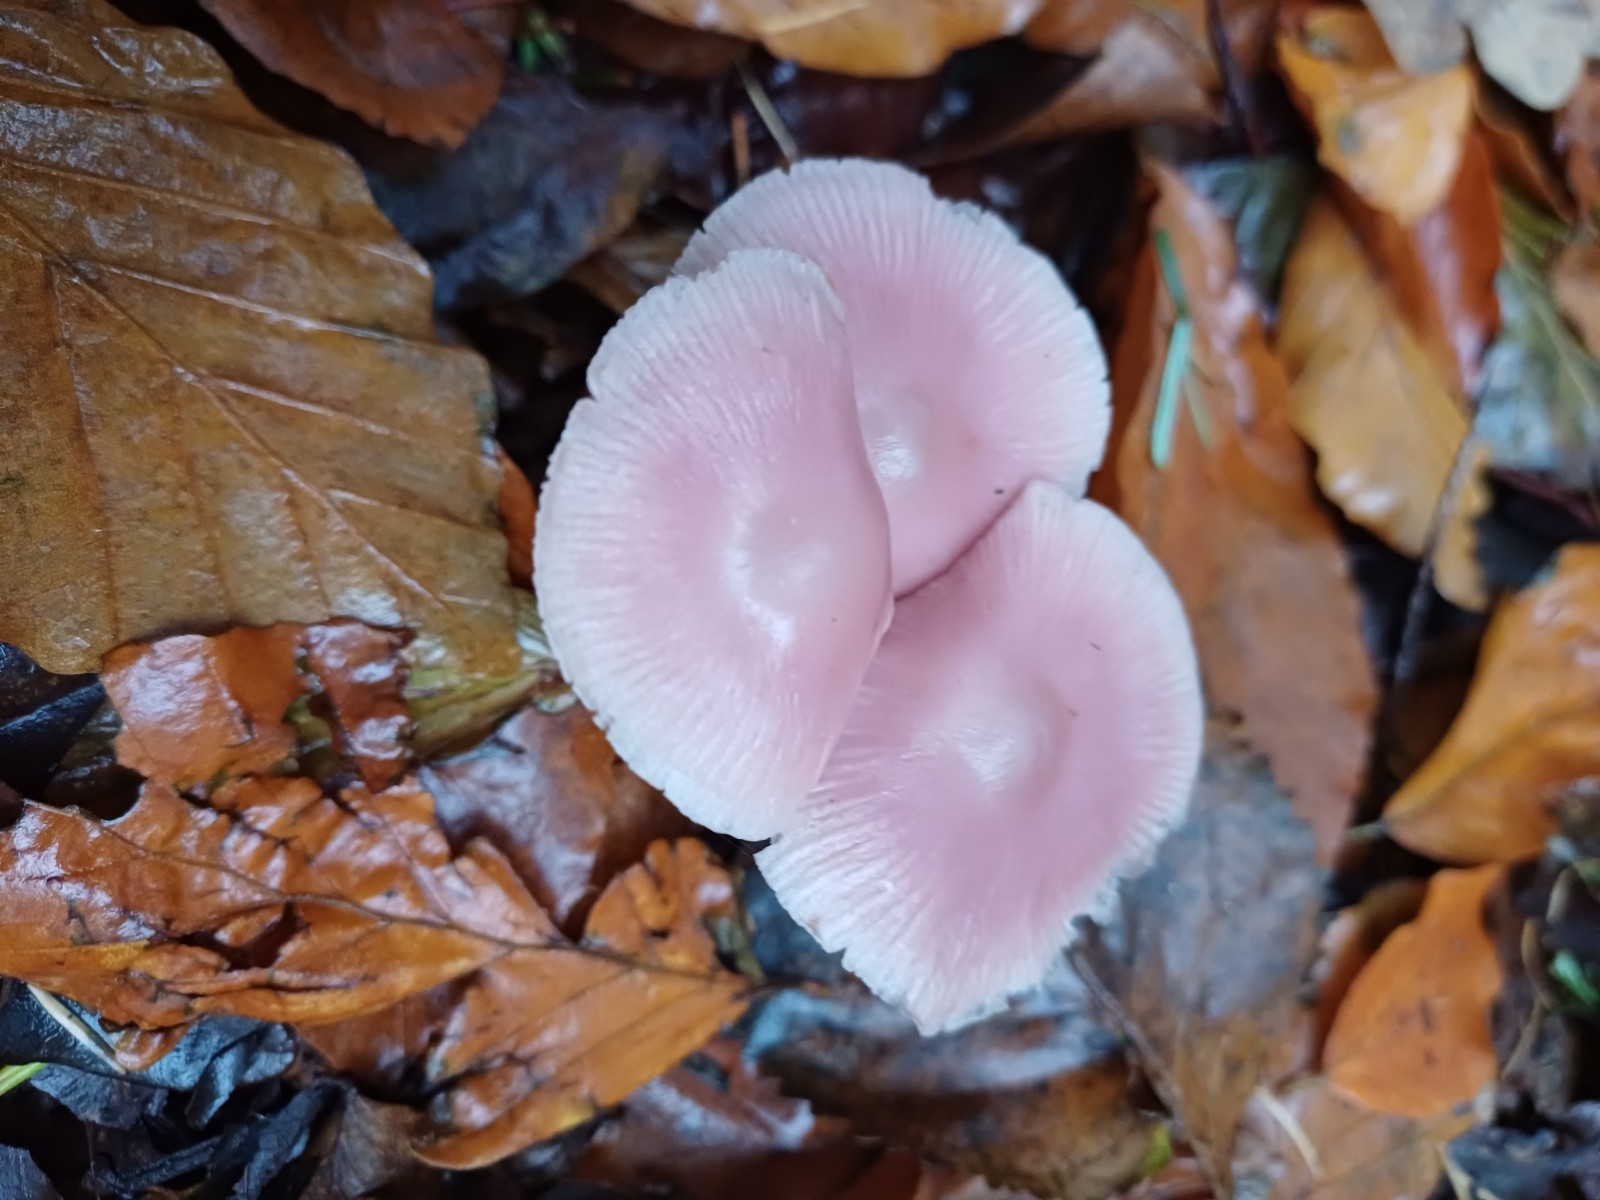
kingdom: Fungi
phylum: Basidiomycota
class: Agaricomycetes
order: Agaricales
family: Mycenaceae
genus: Mycena
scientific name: Mycena rosea
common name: rosa huesvamp
